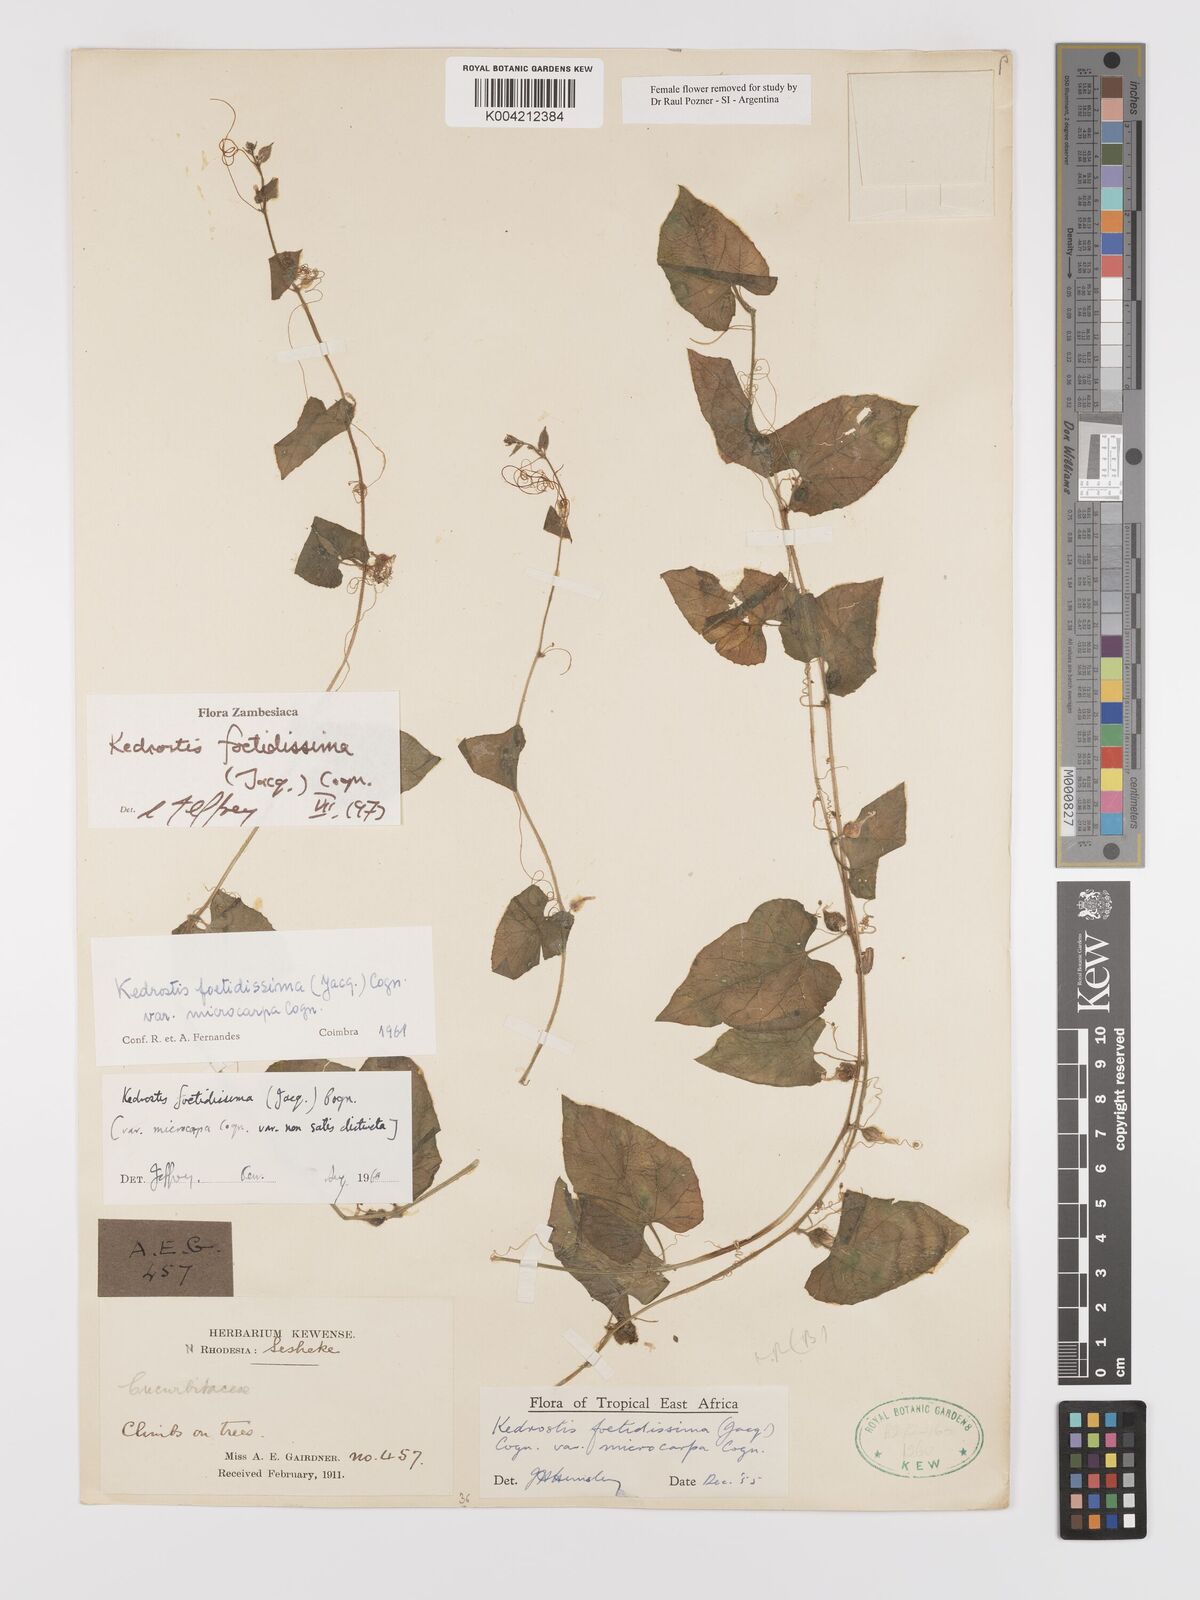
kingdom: Plantae
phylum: Tracheophyta
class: Magnoliopsida
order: Cucurbitales
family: Cucurbitaceae
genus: Kedrostis
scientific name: Kedrostis foetidissima
